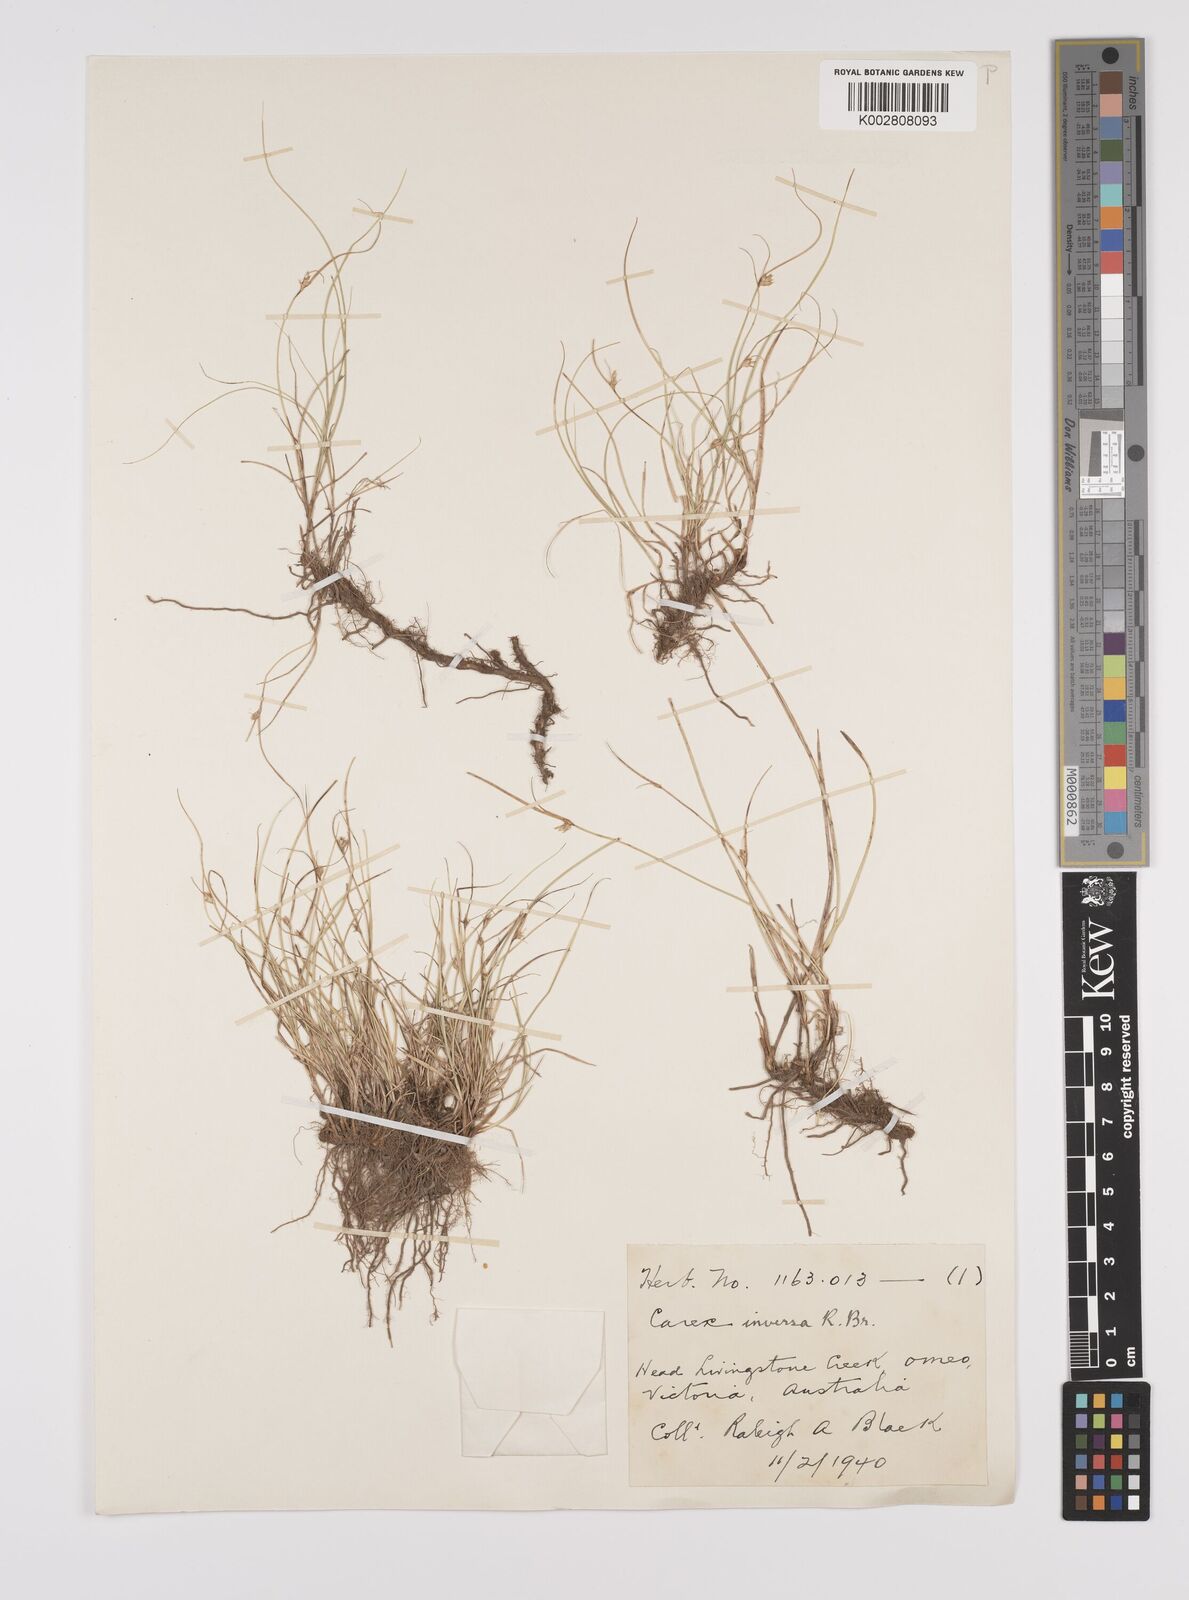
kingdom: Plantae
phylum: Tracheophyta
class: Liliopsida
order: Poales
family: Cyperaceae
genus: Carex
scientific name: Carex inversa
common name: Knob sedge
